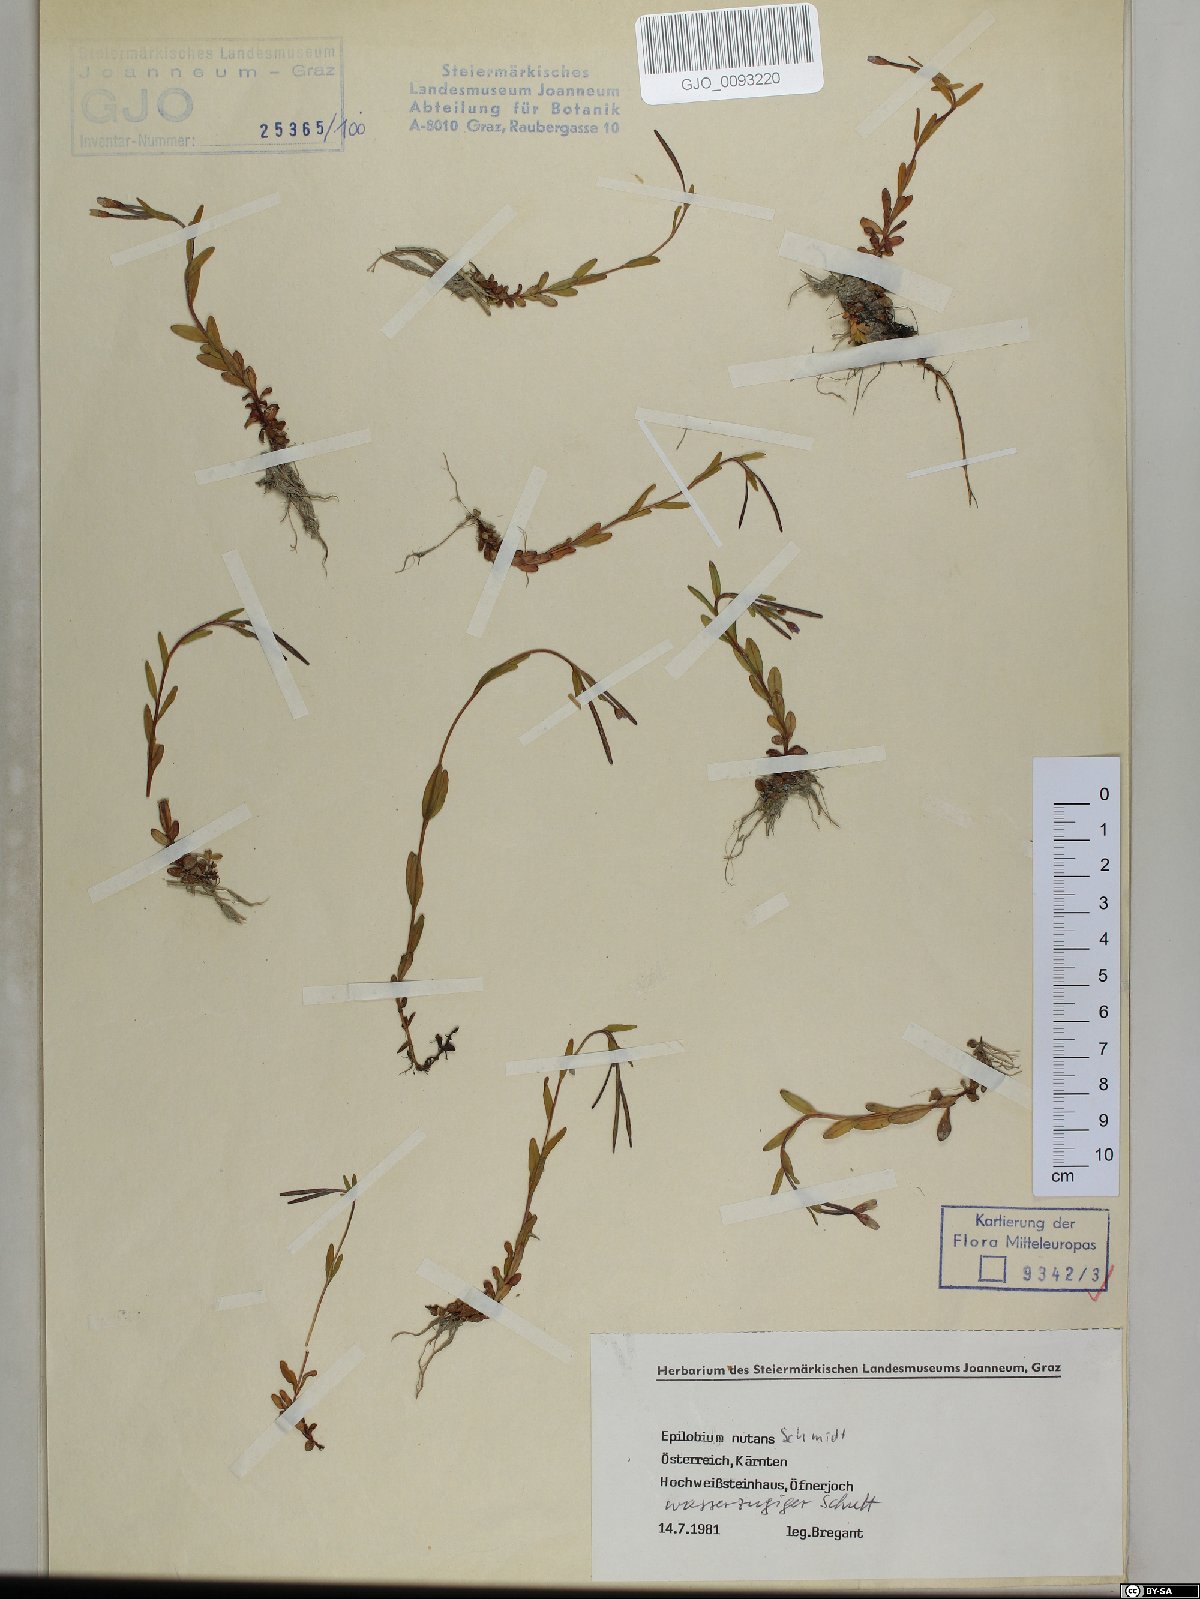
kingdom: Plantae
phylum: Tracheophyta
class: Magnoliopsida
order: Myrtales
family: Onagraceae
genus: Epilobium
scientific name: Epilobium nutans
